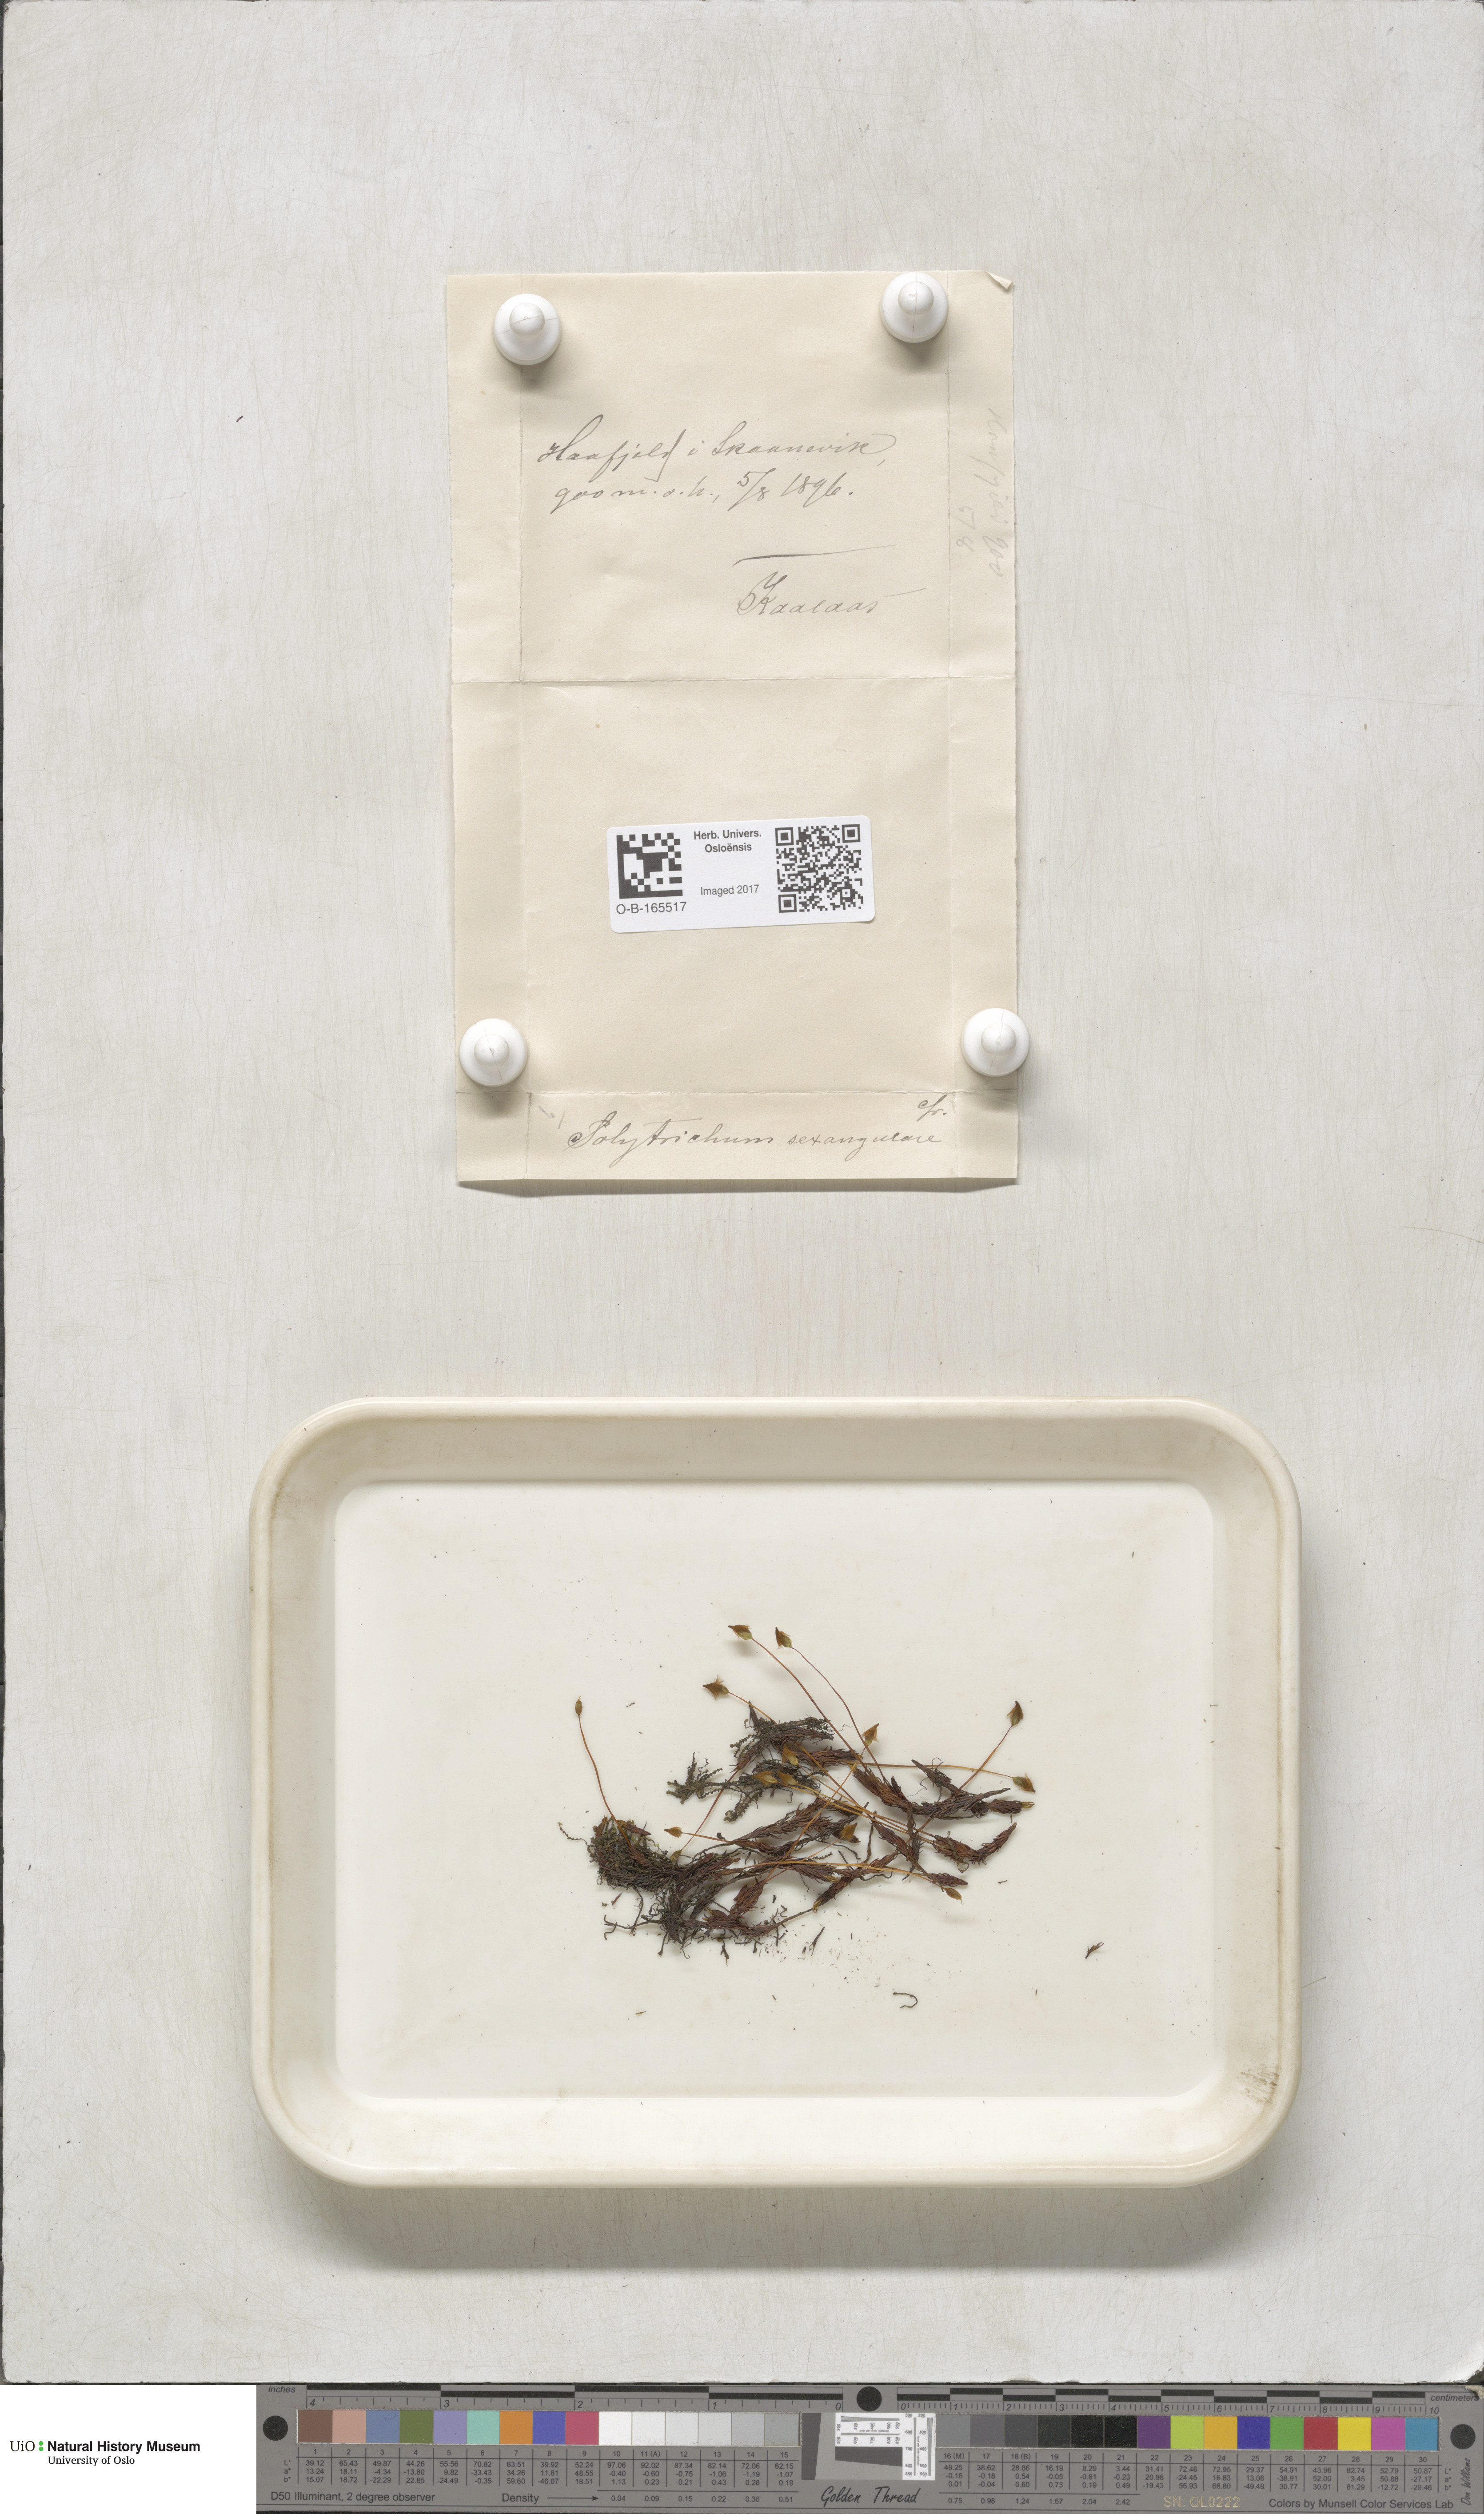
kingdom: Plantae
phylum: Bryophyta
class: Polytrichopsida
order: Polytrichales
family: Polytrichaceae
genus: Polytrichastrum
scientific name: Polytrichastrum sexangulare
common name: Northern haircap
